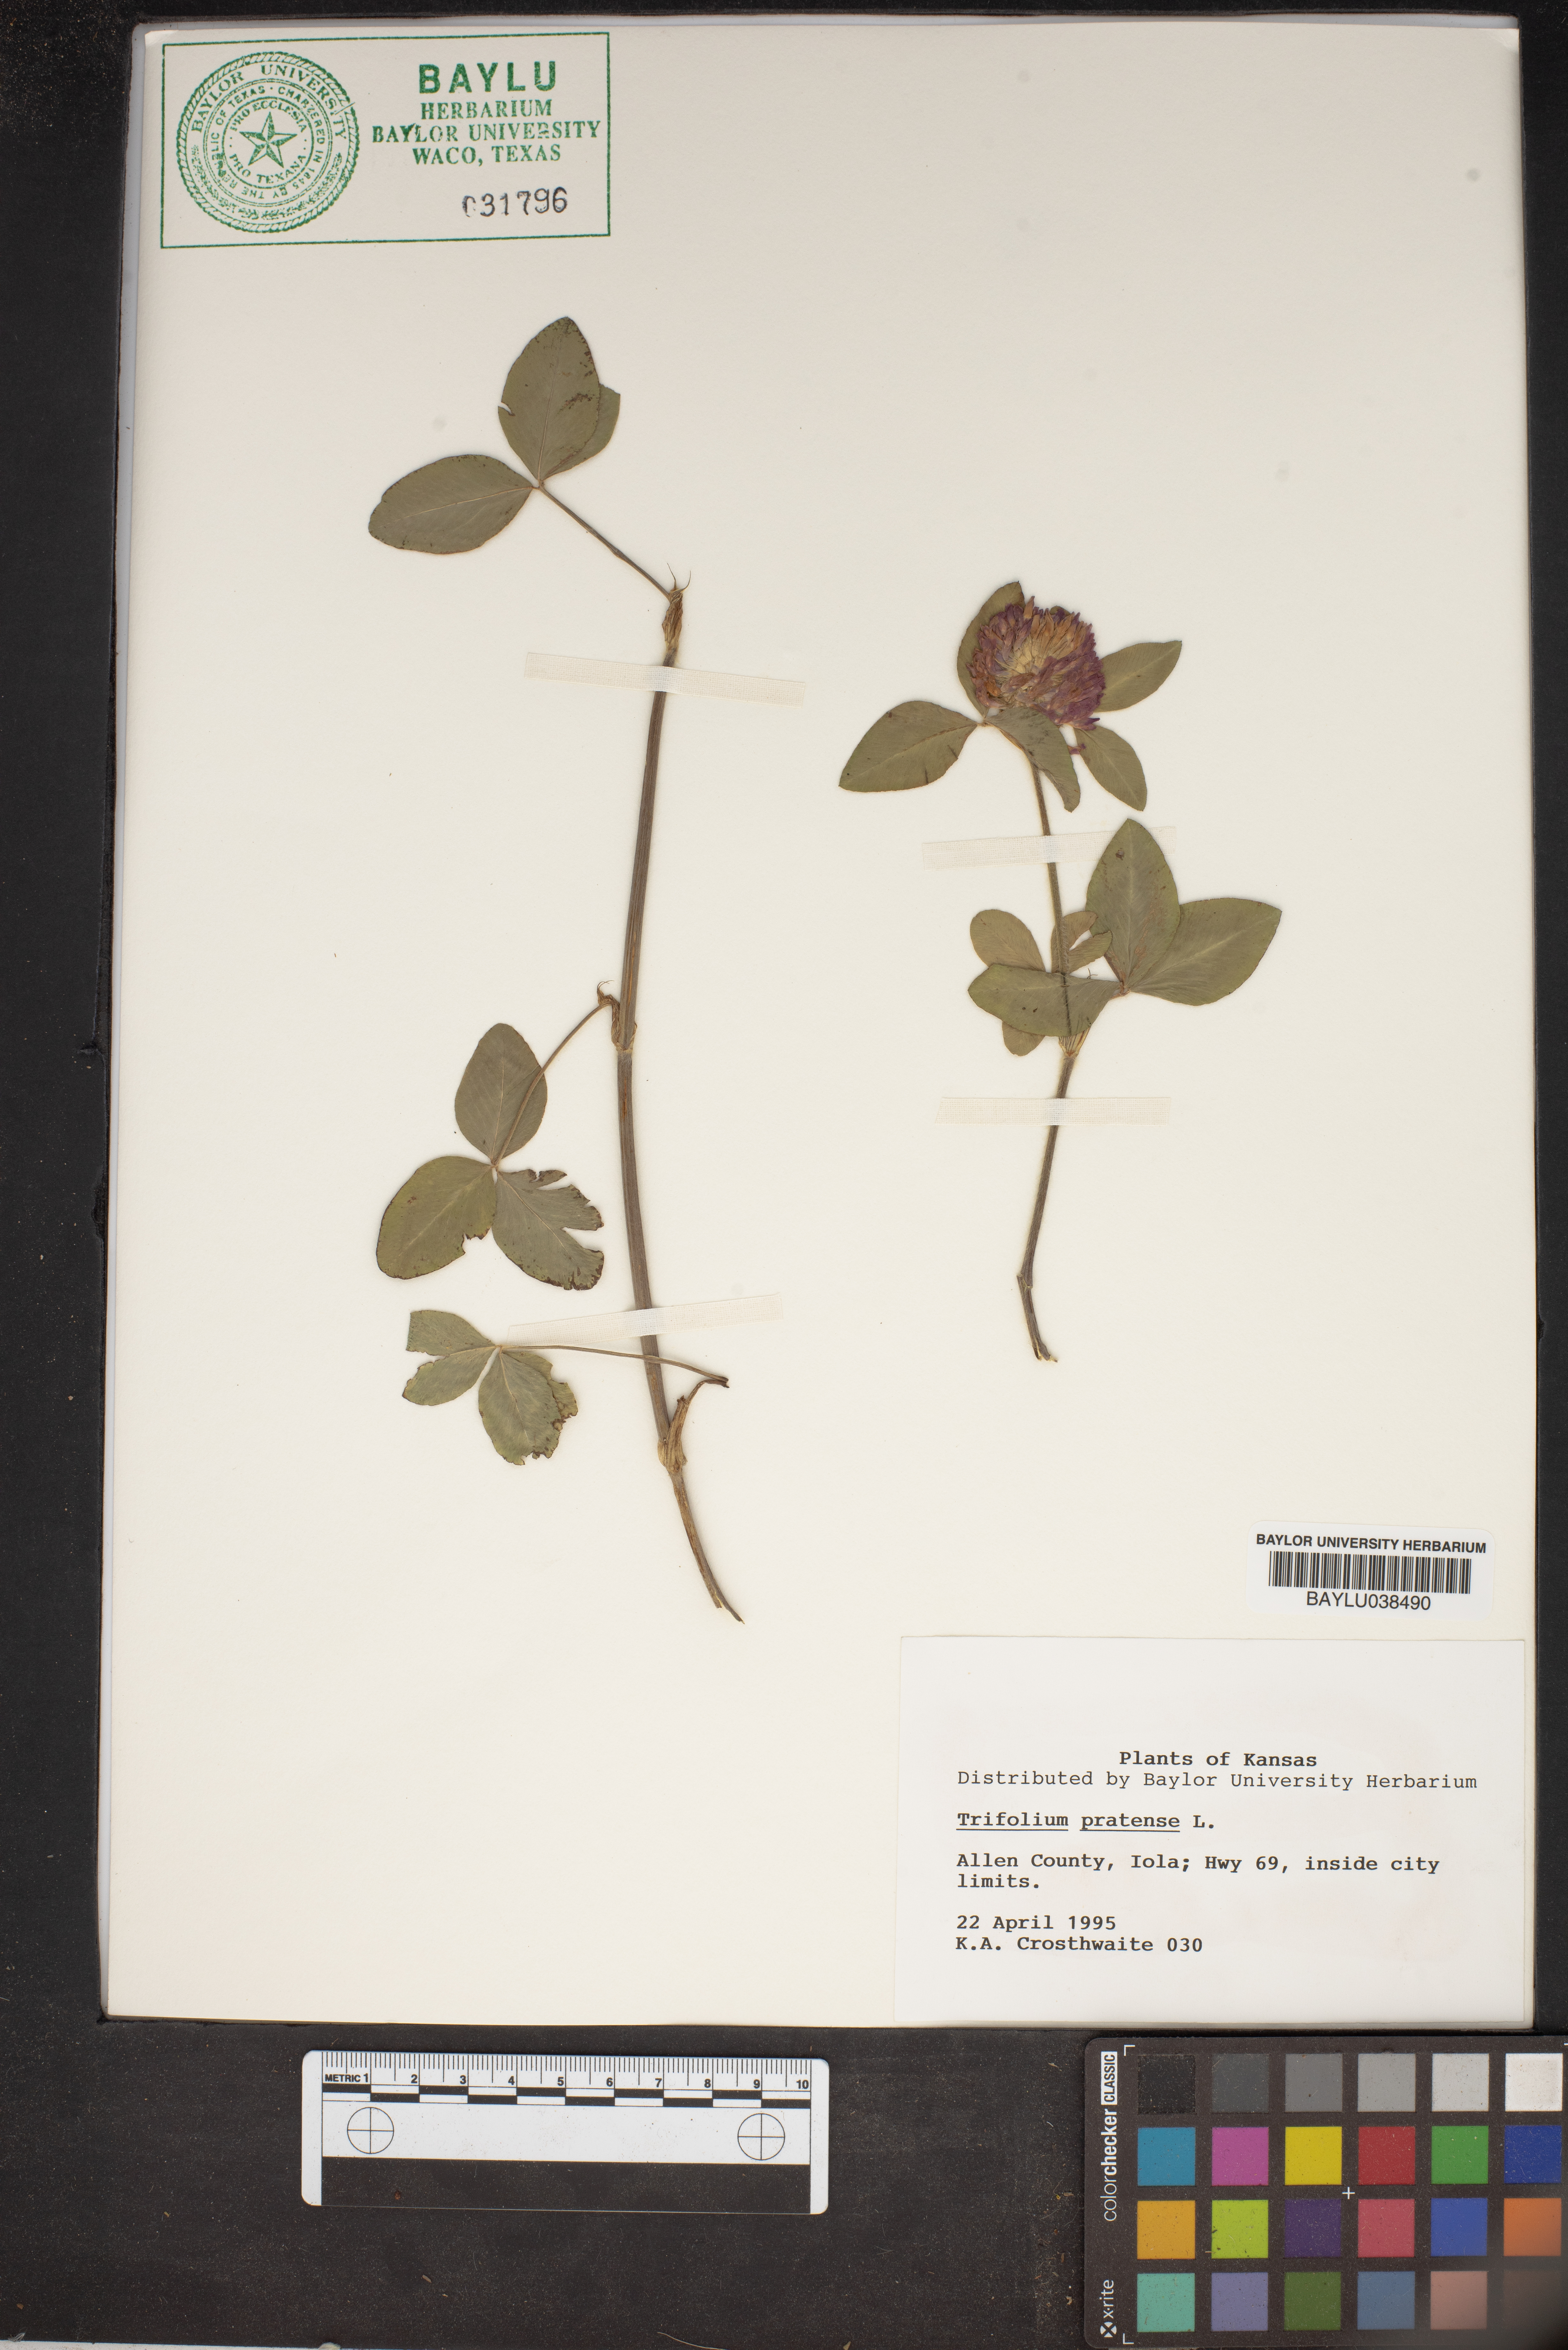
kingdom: Plantae
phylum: Tracheophyta
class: Magnoliopsida
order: Fabales
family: Fabaceae
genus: Trifolium
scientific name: Trifolium pratense
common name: Red clover
